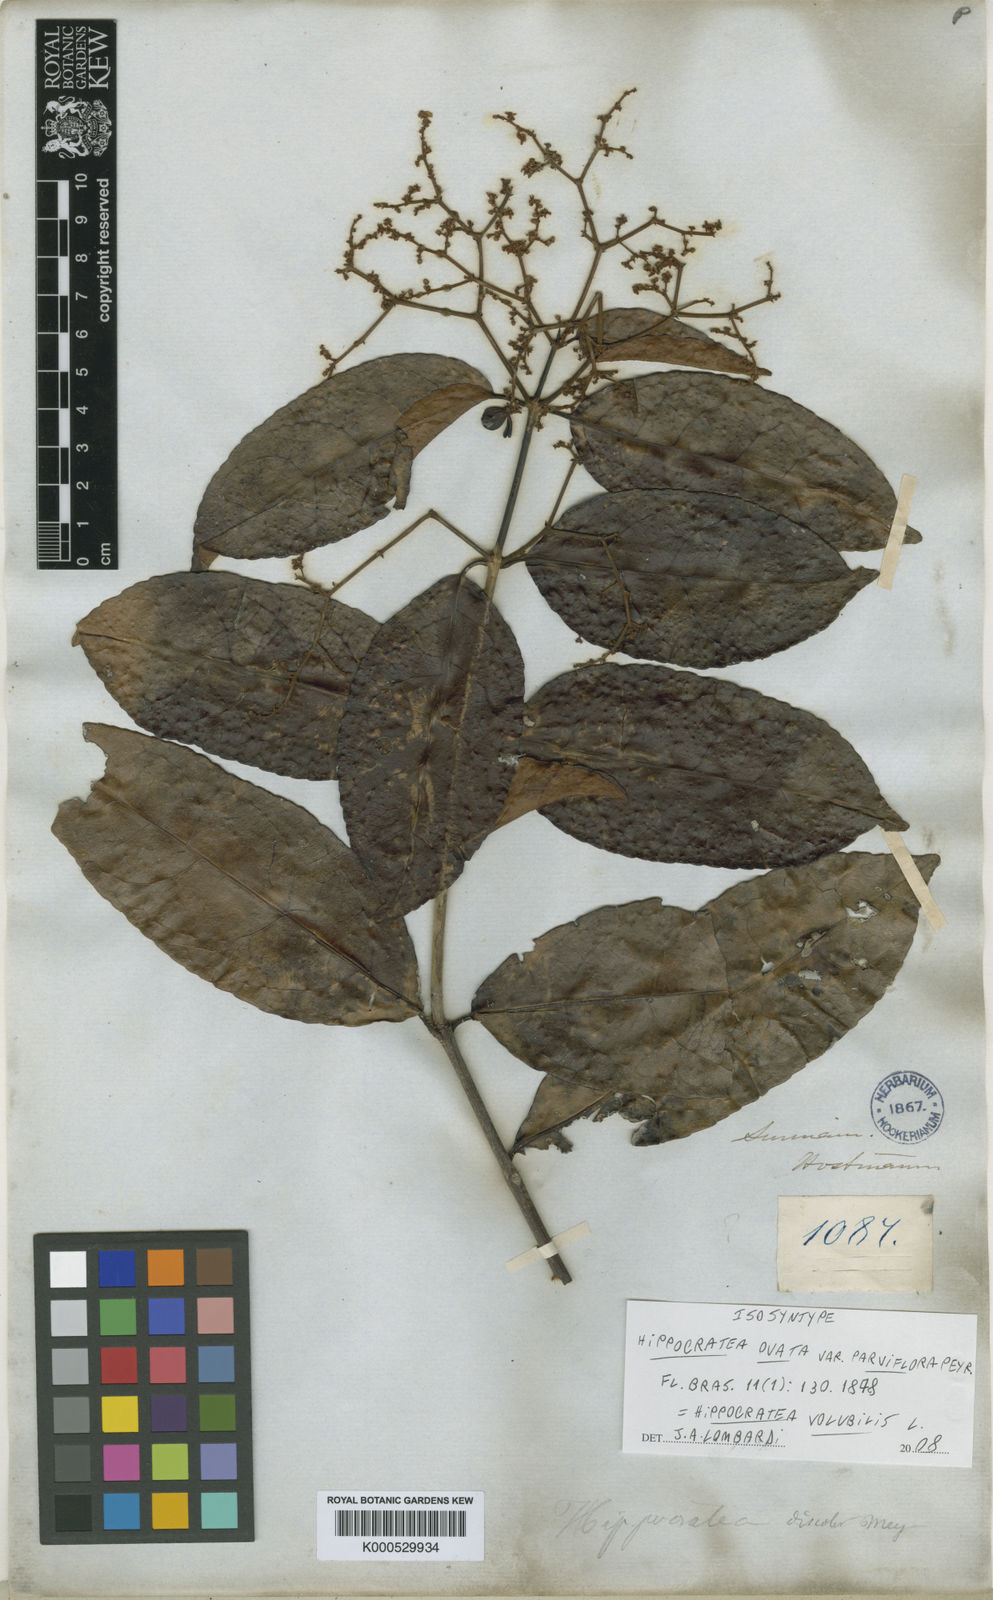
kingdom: Plantae
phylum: Tracheophyta
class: Magnoliopsida
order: Celastrales
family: Celastraceae
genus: Hippocratea
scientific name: Hippocratea volubilis
